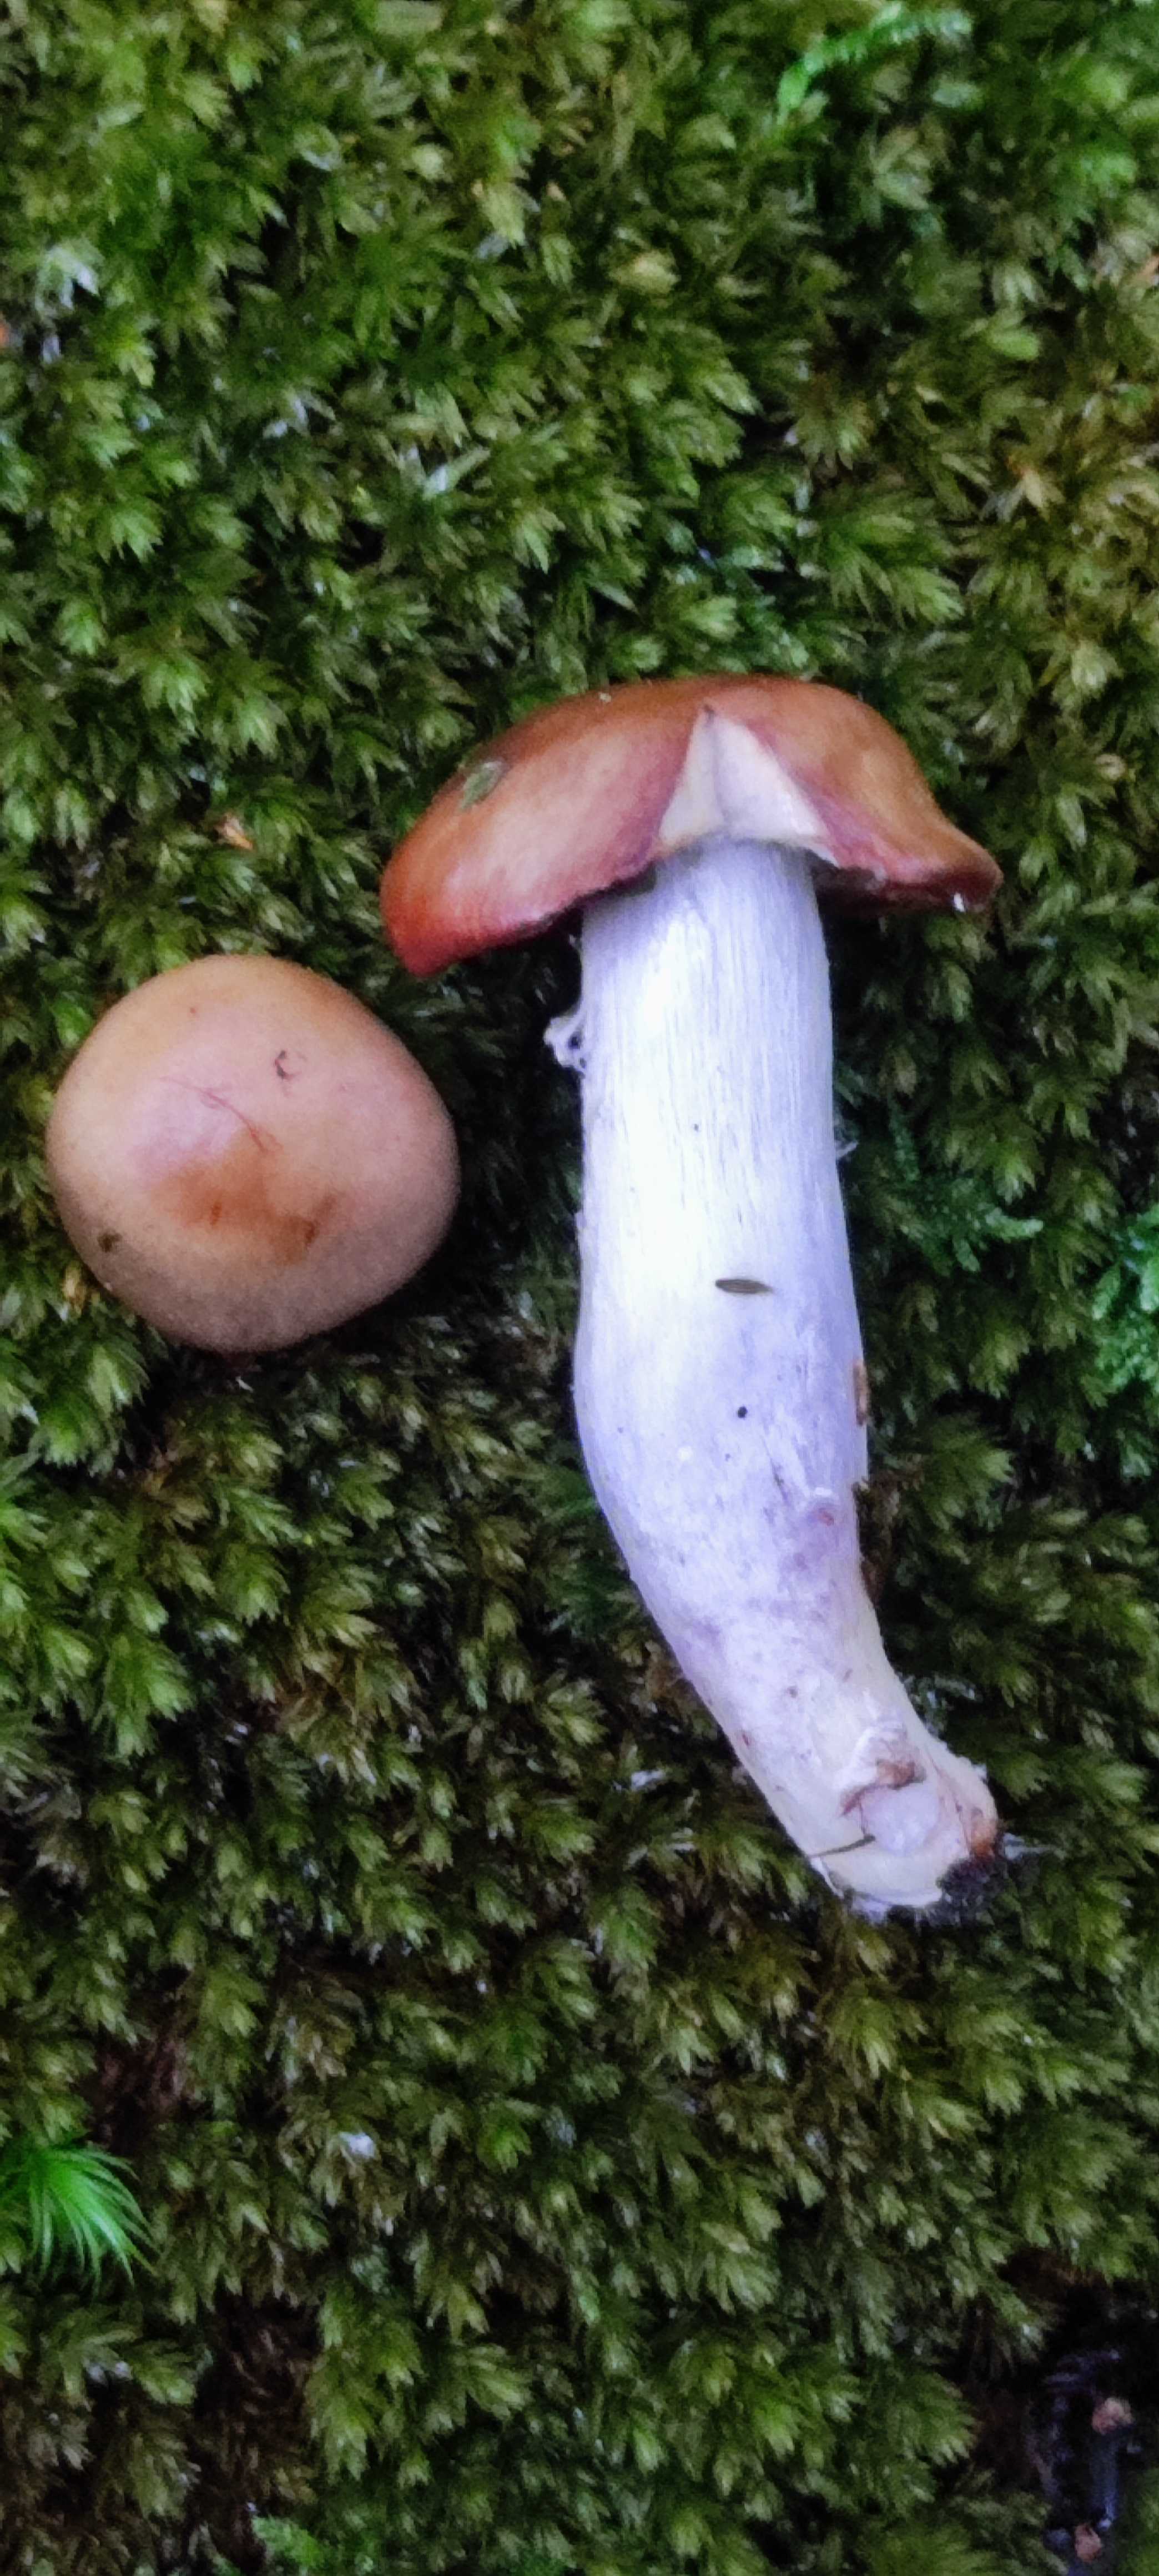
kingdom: Fungi
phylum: Basidiomycota
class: Agaricomycetes
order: Agaricales
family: Cortinariaceae
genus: Cortinarius
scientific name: Cortinarius elatior
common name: høj slørhat
